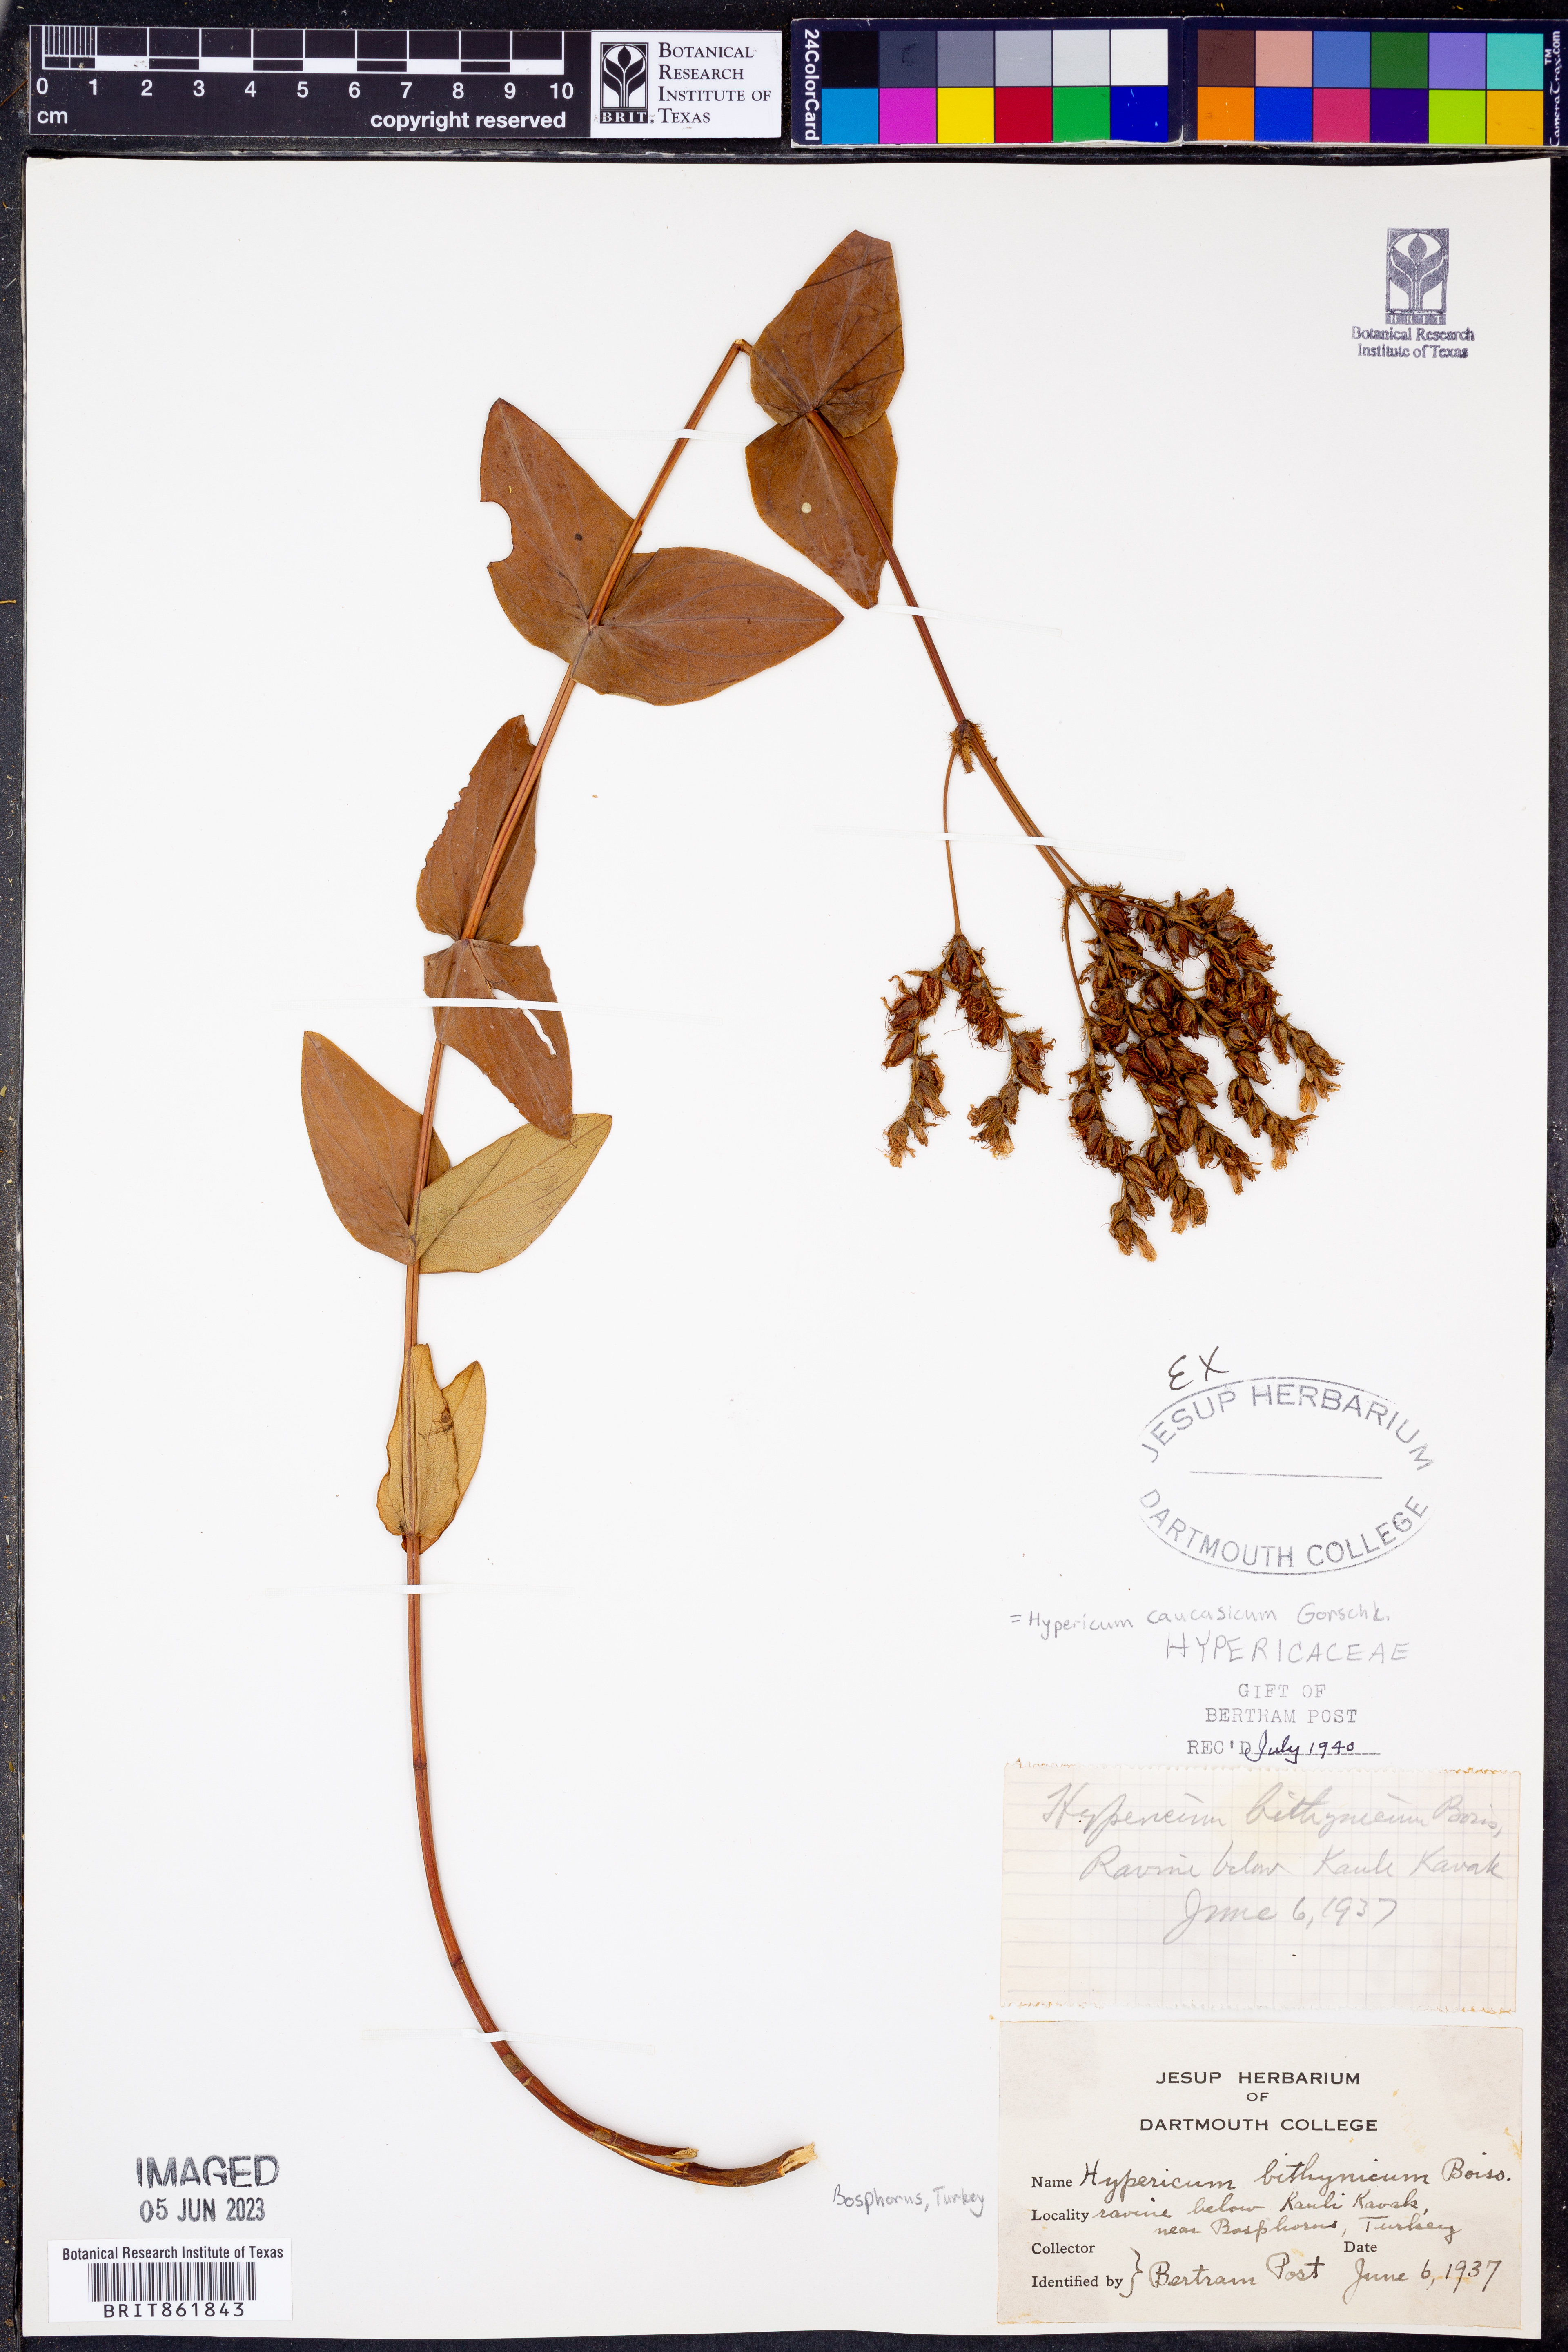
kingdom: Plantae
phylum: Tracheophyta
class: Magnoliopsida
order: Malpighiales
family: Hypericaceae
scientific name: Hypericaceae
